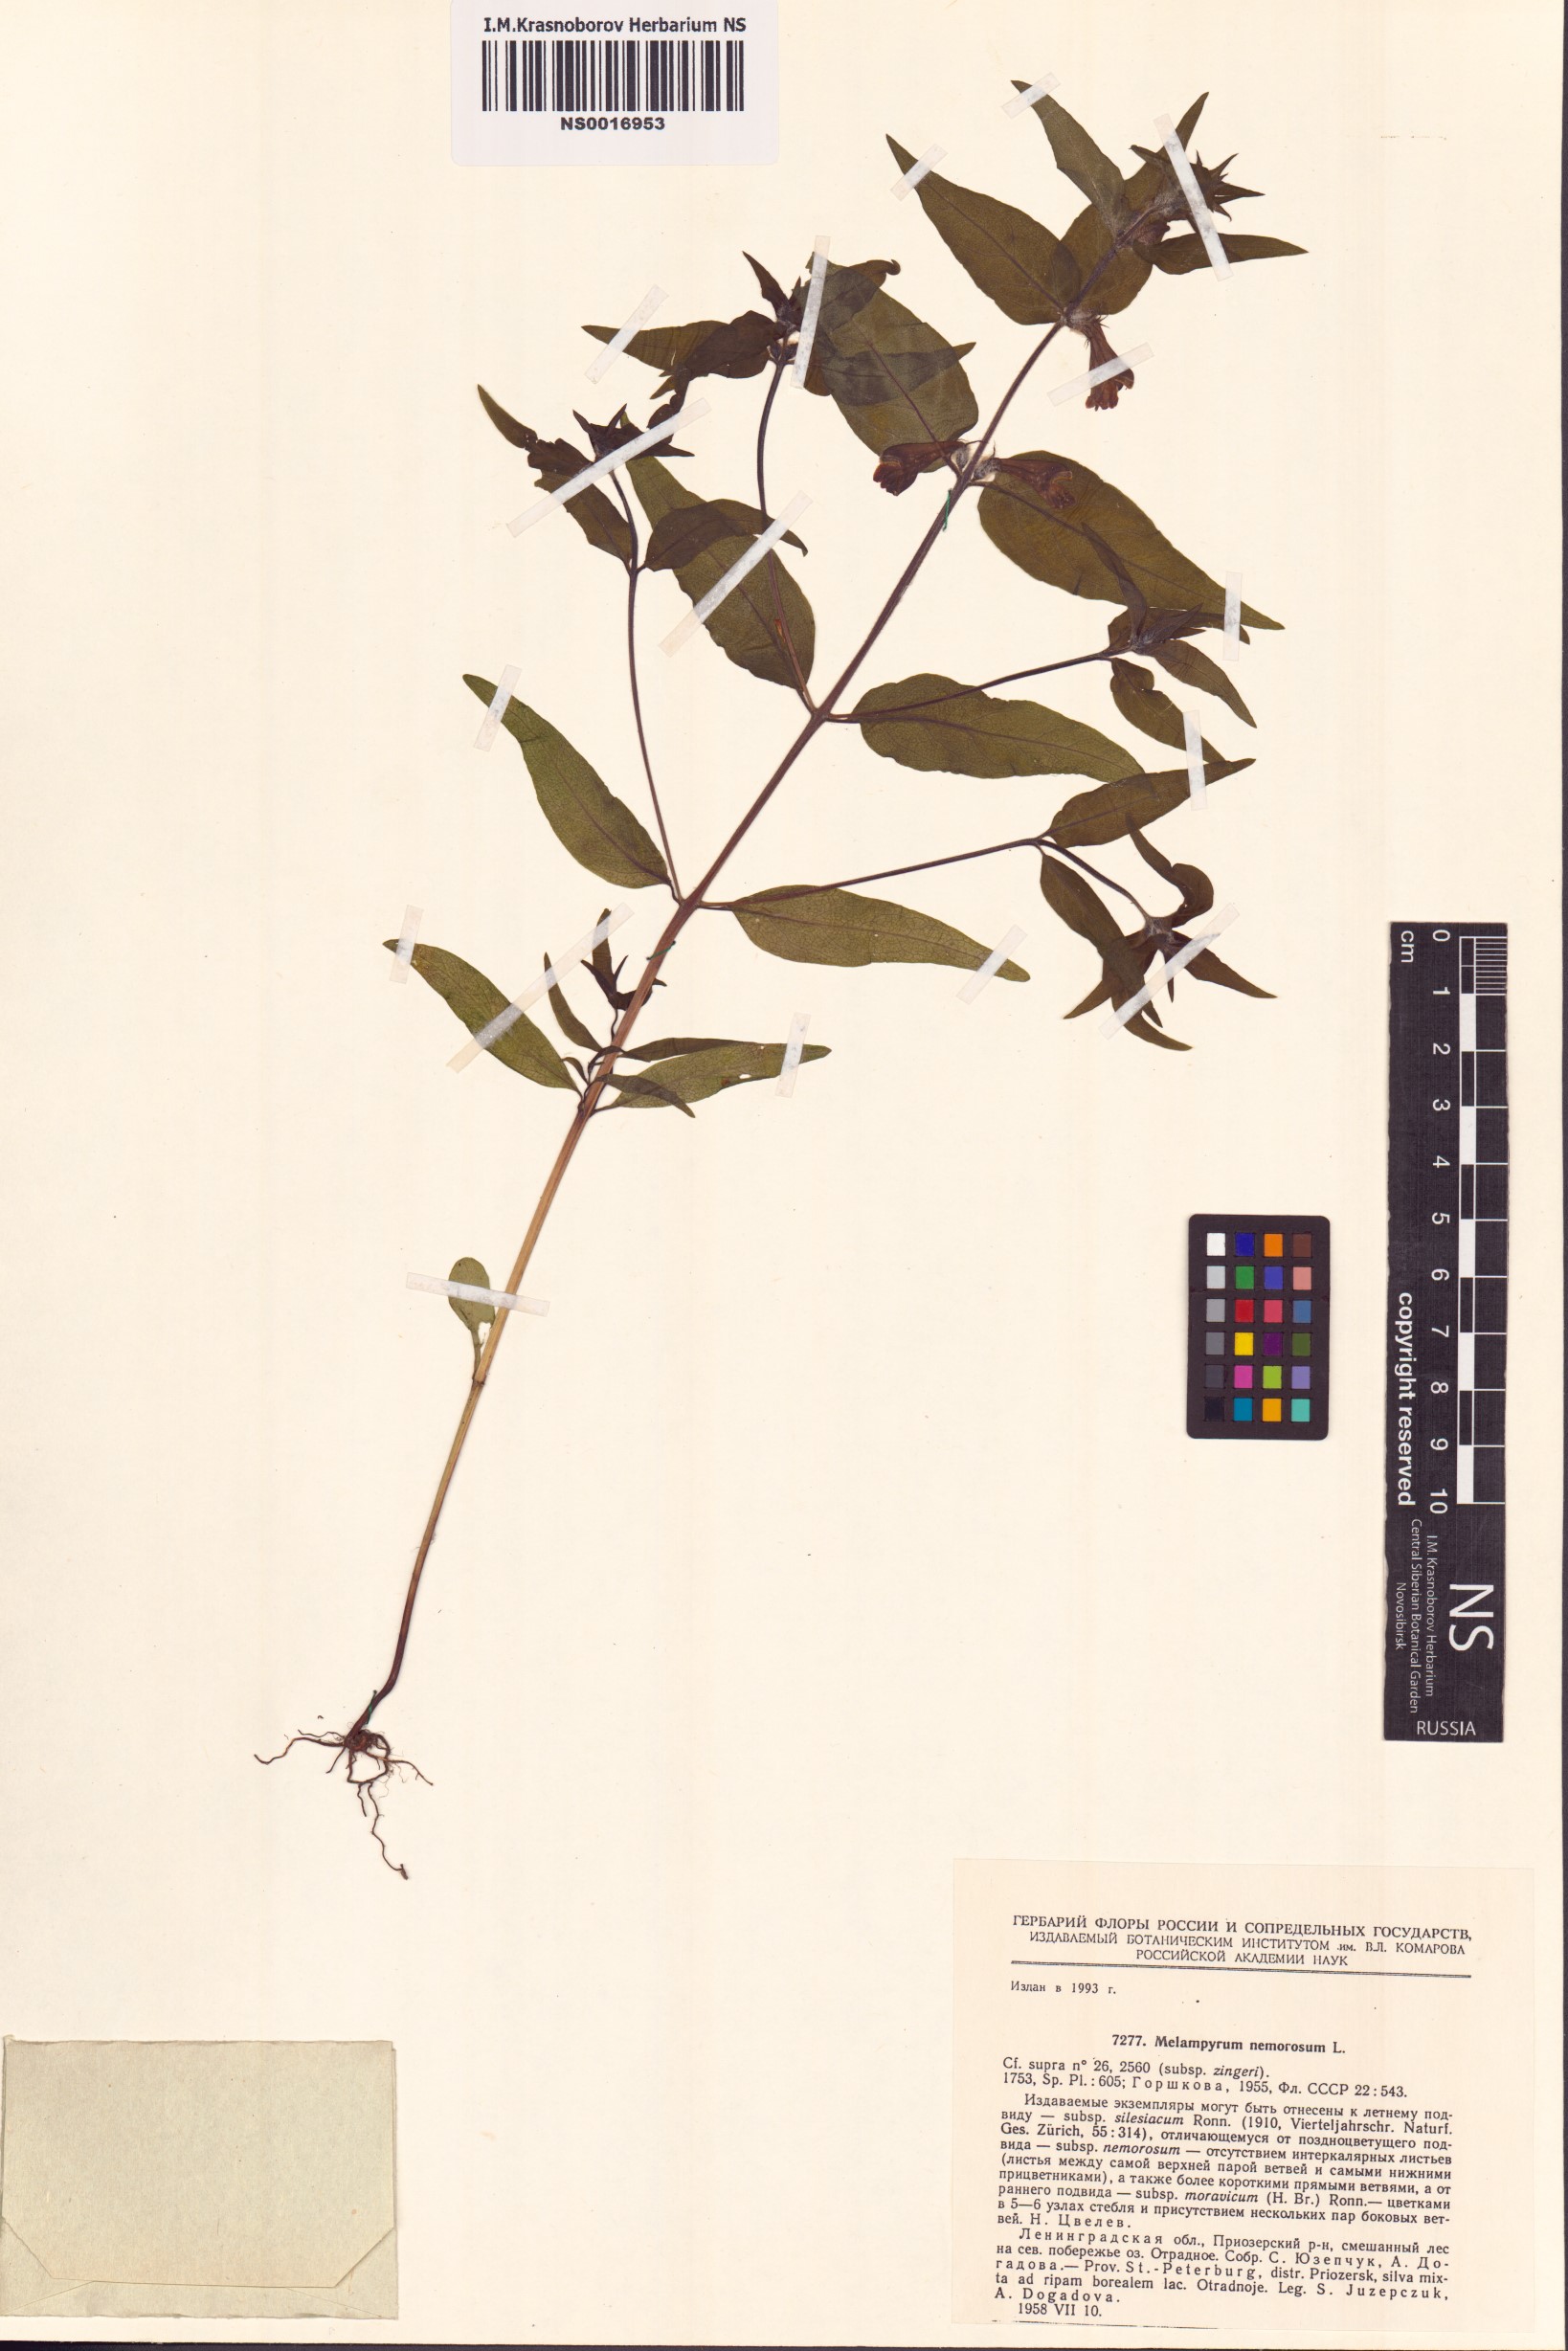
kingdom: Plantae
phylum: Tracheophyta
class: Magnoliopsida
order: Lamiales
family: Orobanchaceae
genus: Melampyrum
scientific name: Melampyrum nemorosum
